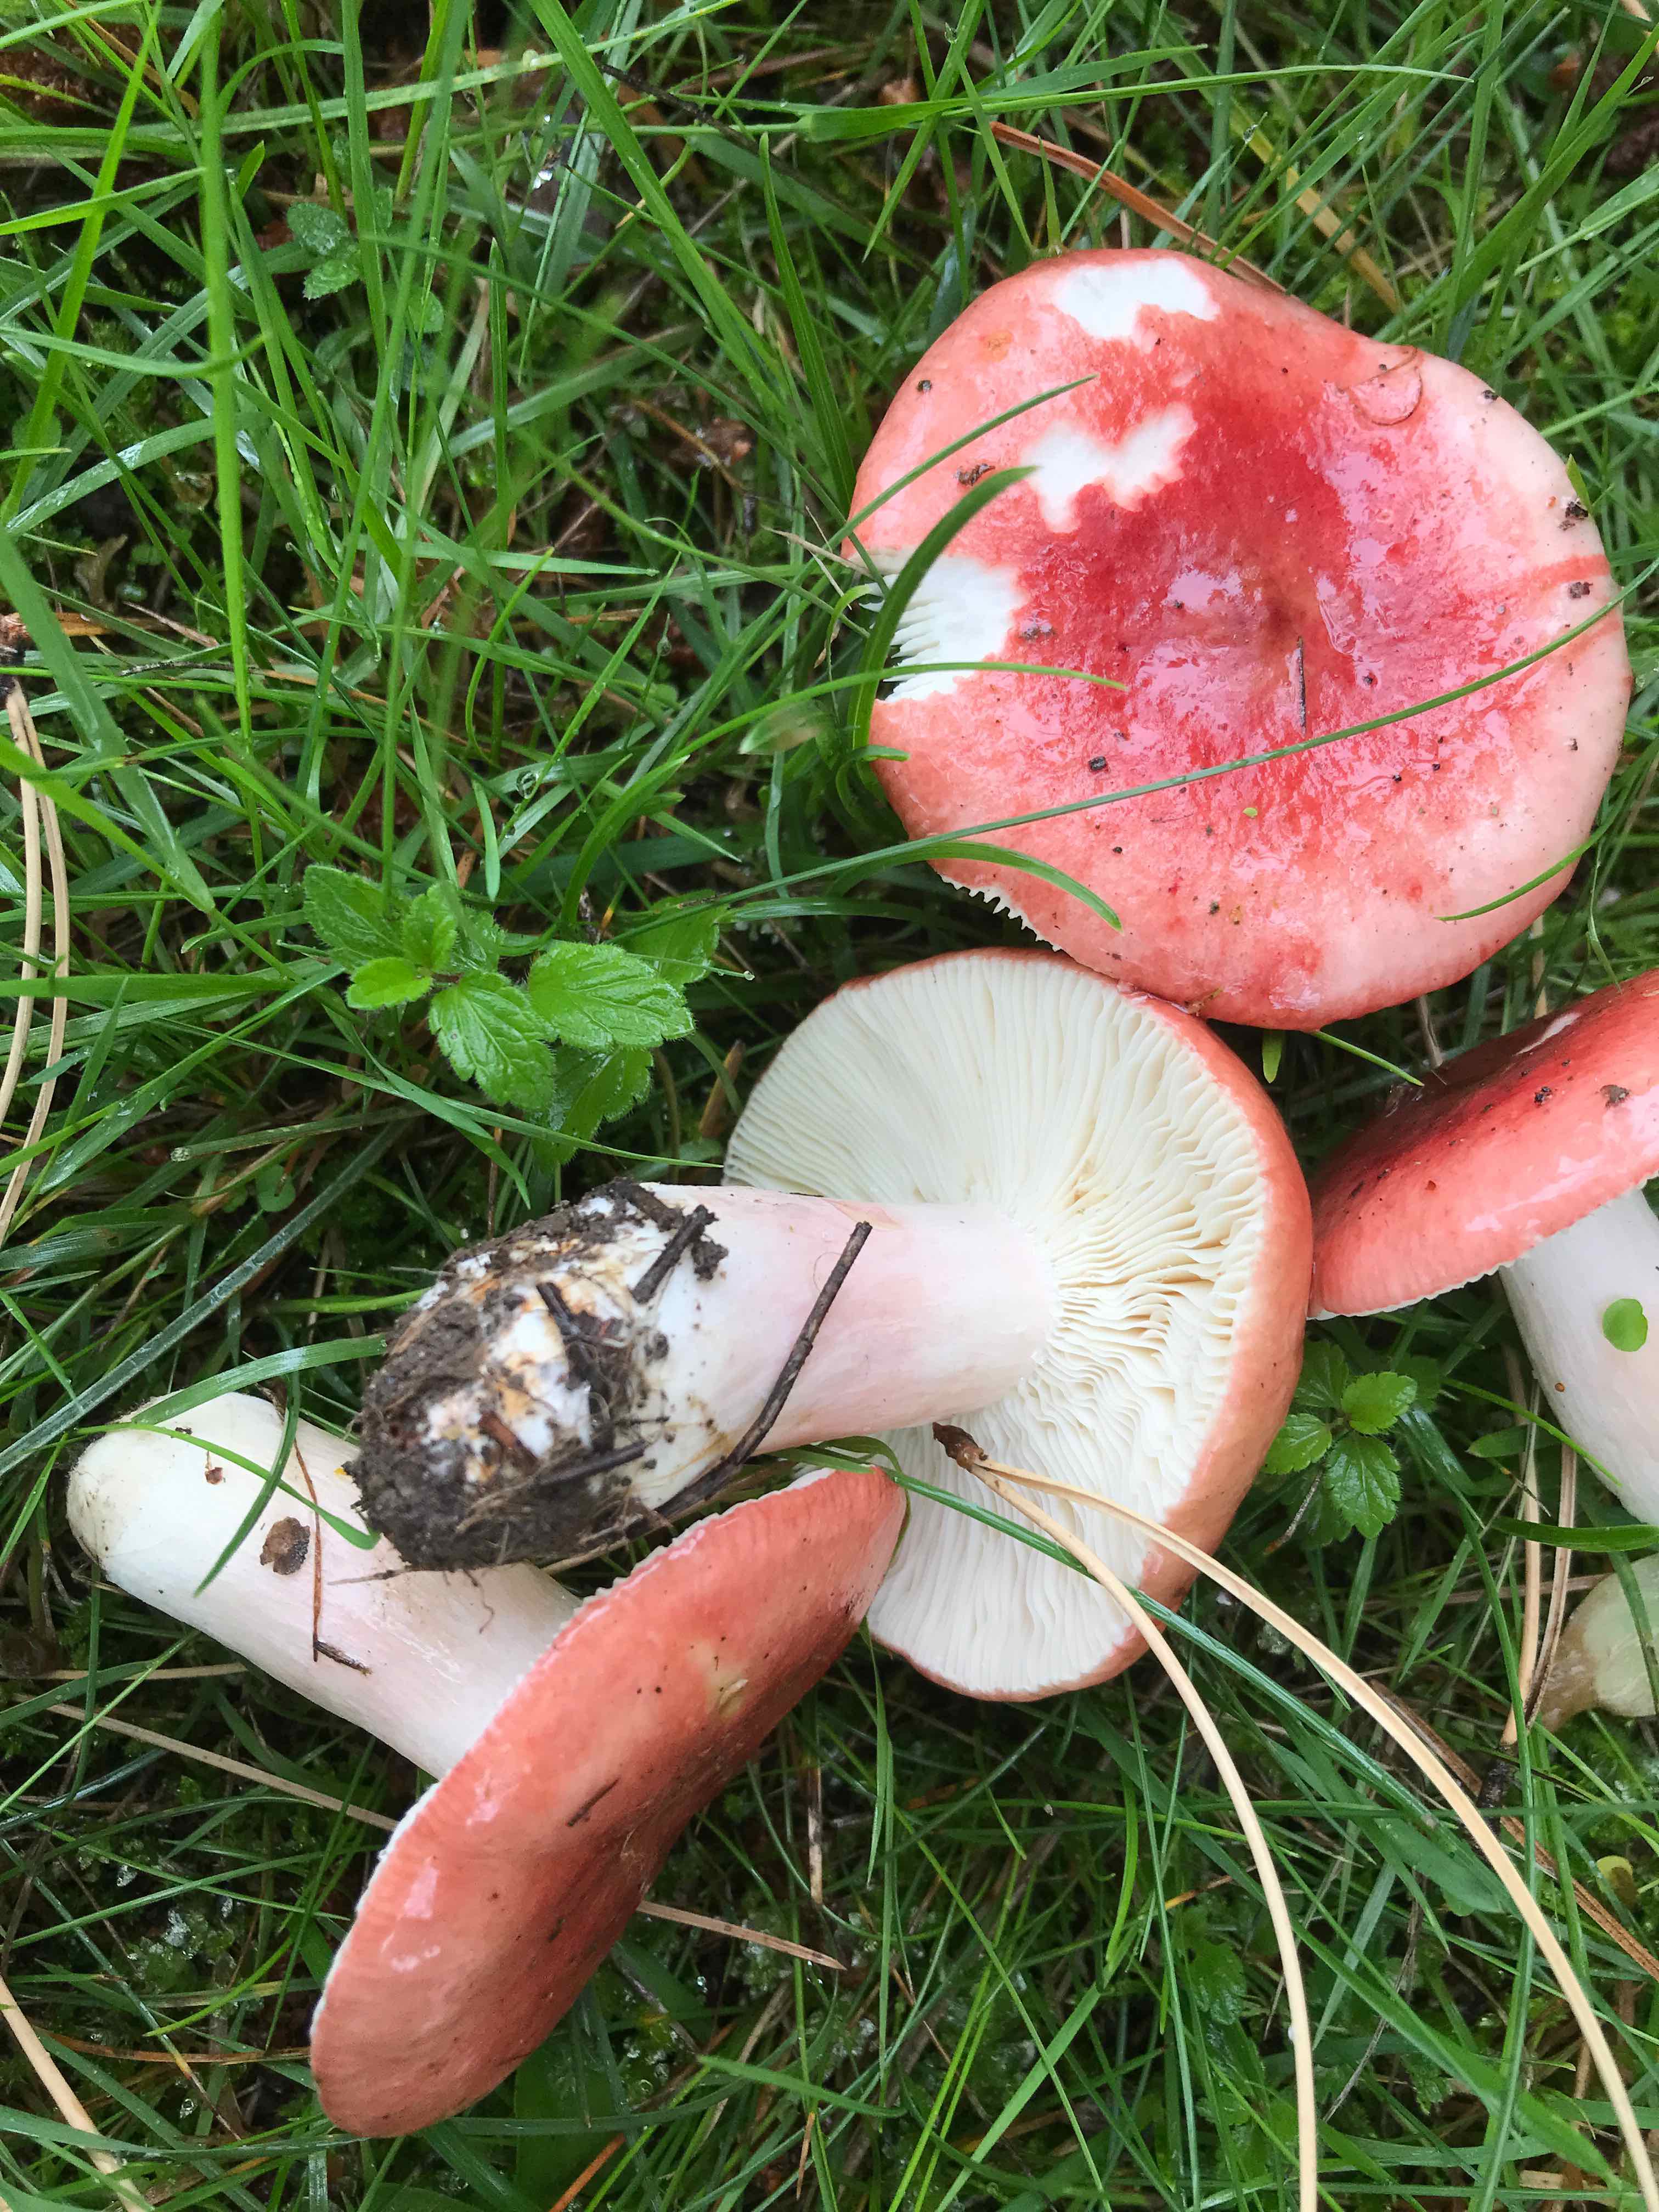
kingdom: Fungi
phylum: Basidiomycota
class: Agaricomycetes
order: Russulales
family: Russulaceae
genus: Russula
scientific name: Russula sanguinea
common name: blodrød skørhat
